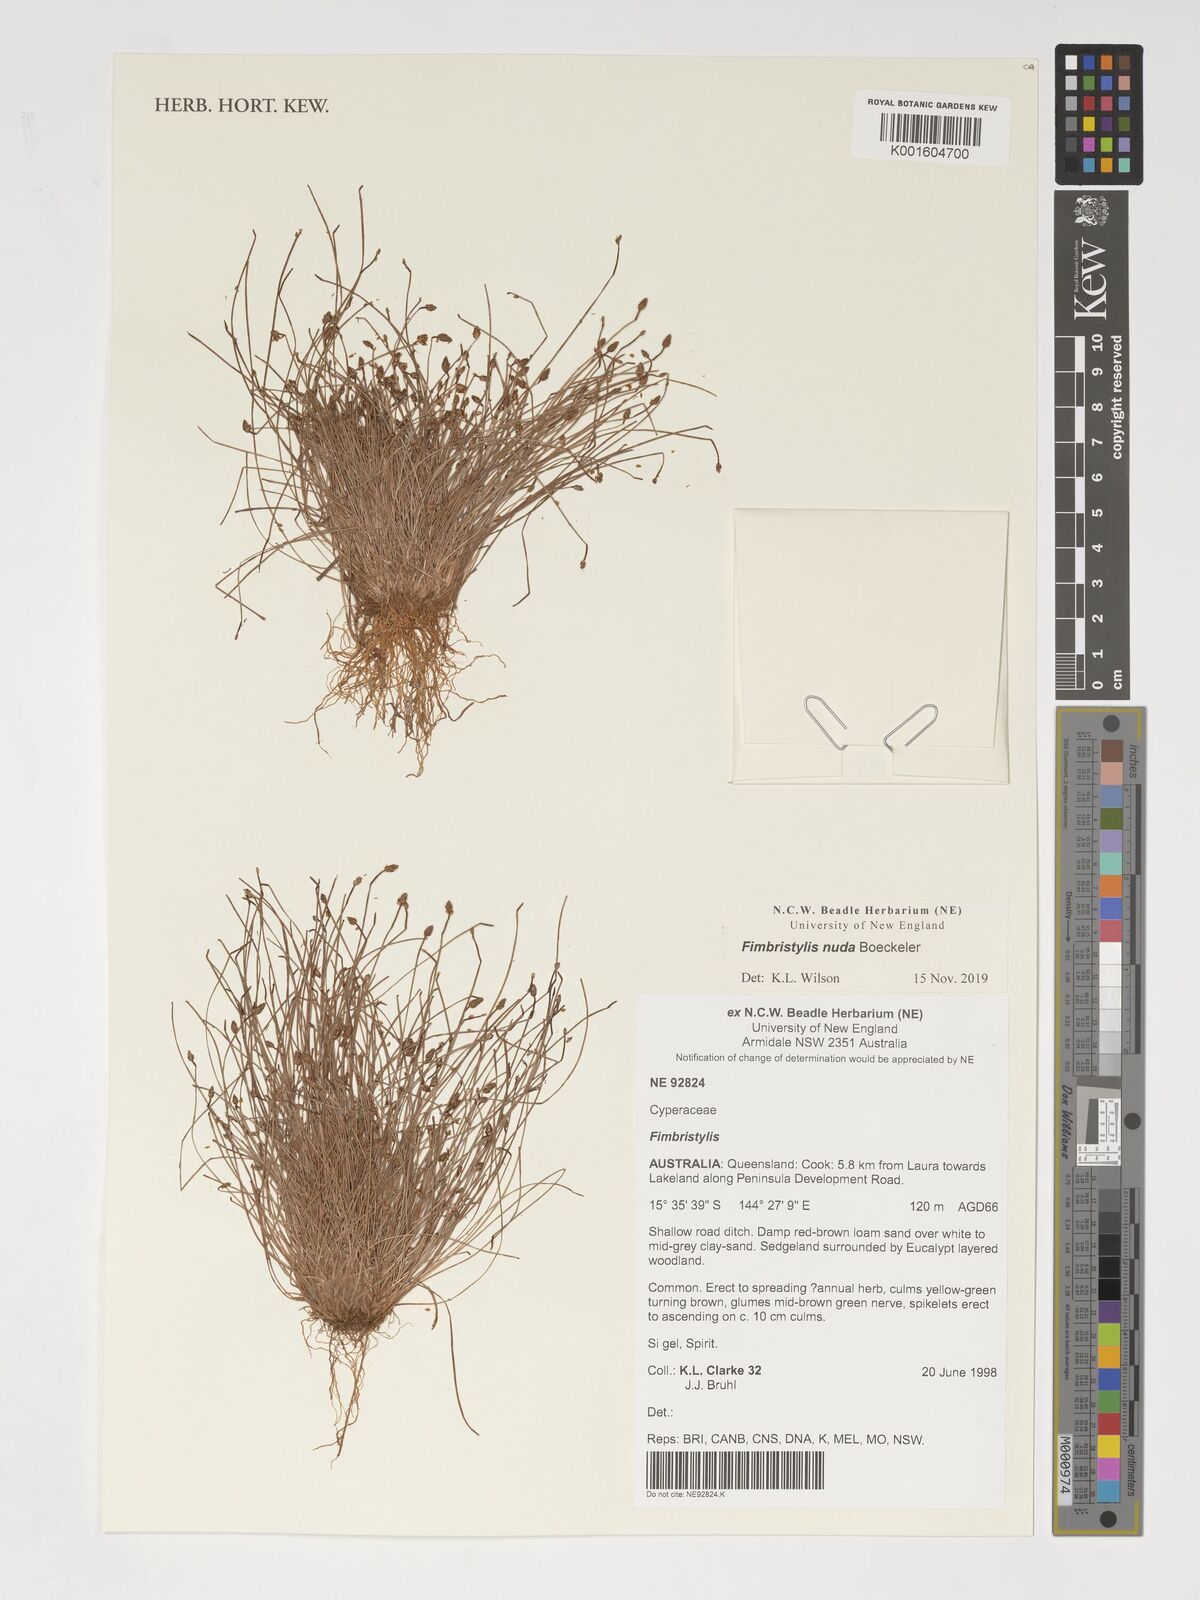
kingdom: Plantae
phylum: Tracheophyta
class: Liliopsida
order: Poales
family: Cyperaceae
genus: Fimbristylis
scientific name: Fimbristylis
